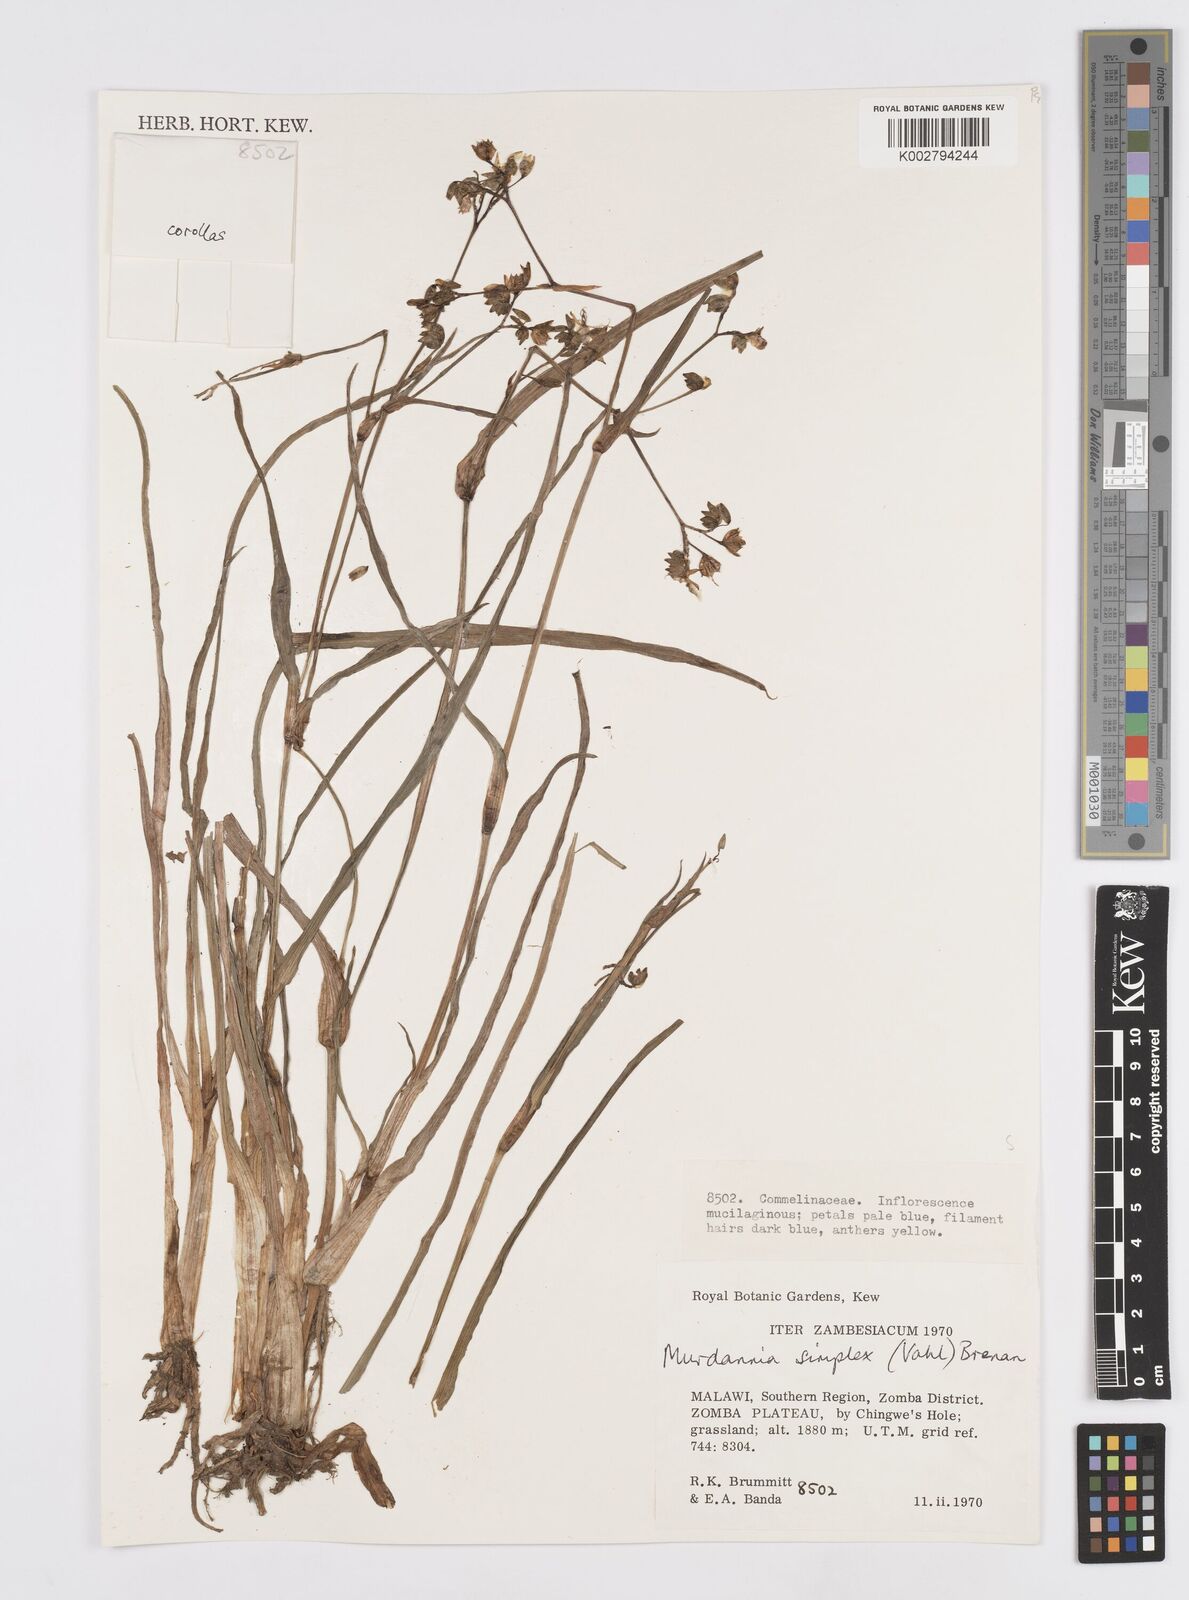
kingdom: Plantae
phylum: Tracheophyta
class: Liliopsida
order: Commelinales
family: Commelinaceae
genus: Murdannia
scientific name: Murdannia simplex
